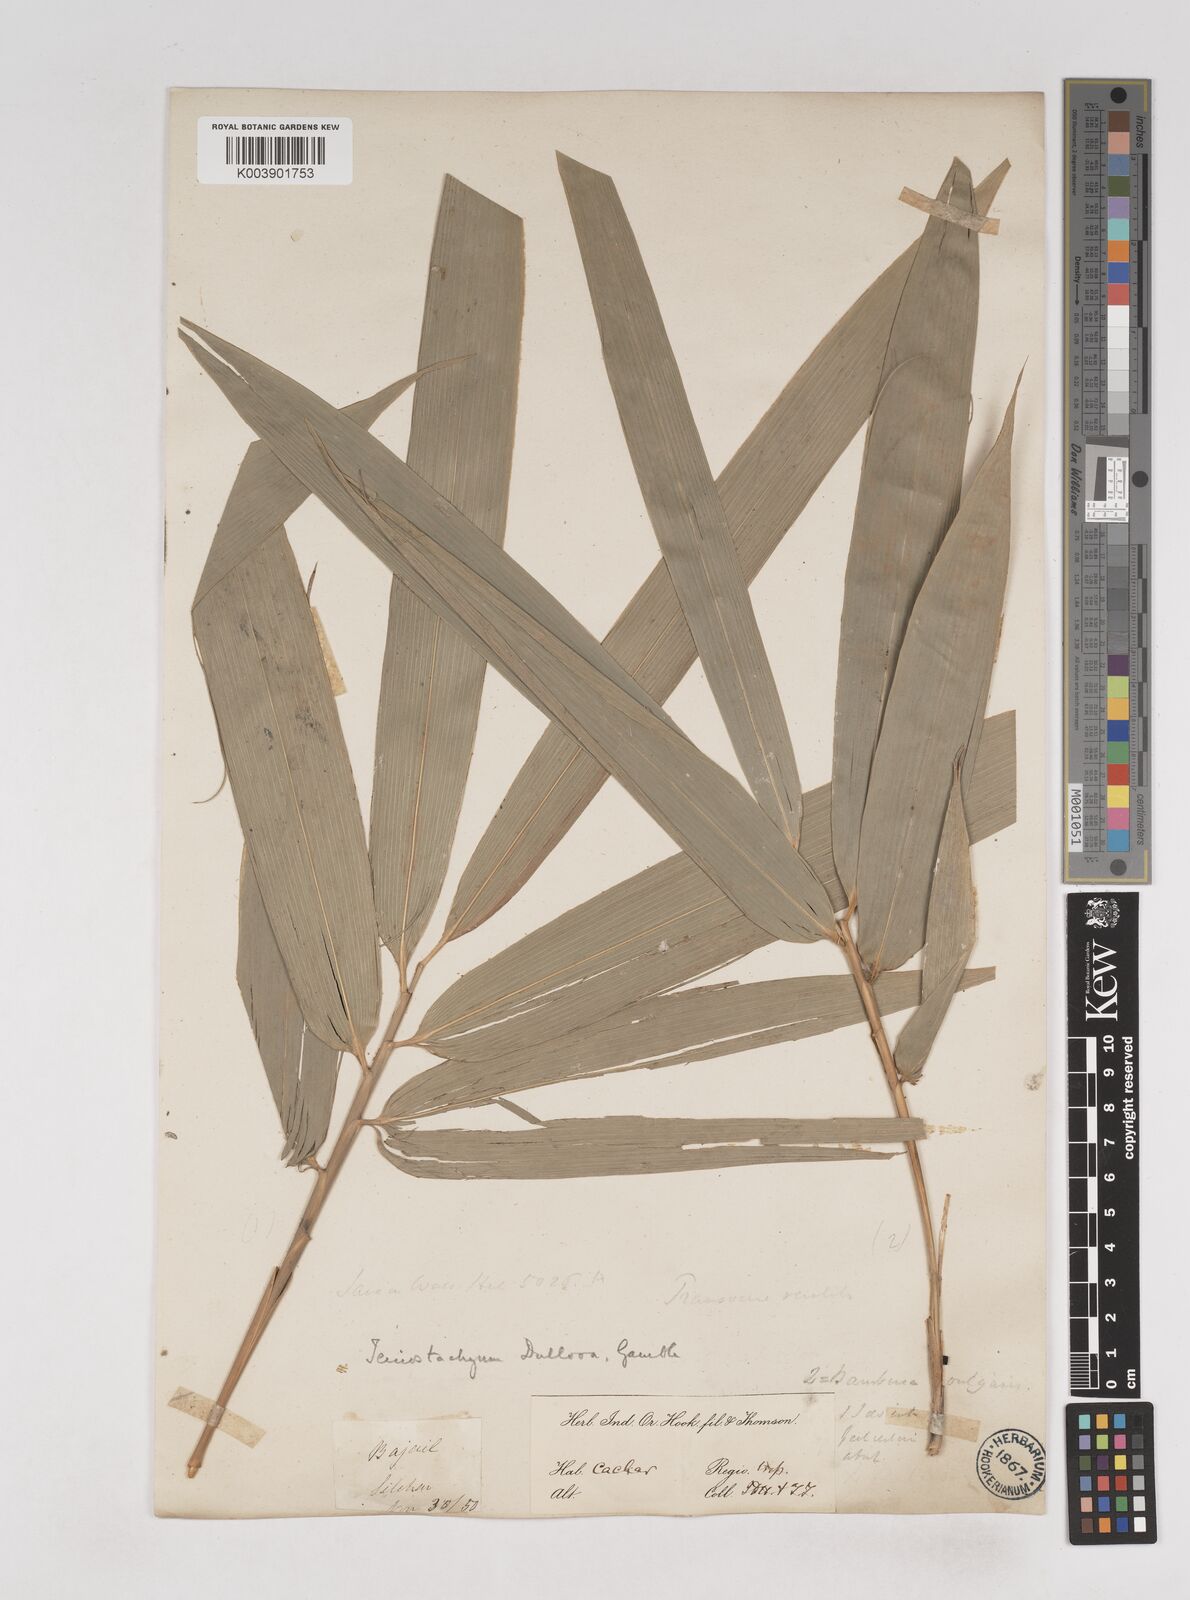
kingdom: Plantae
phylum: Tracheophyta
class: Liliopsida
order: Poales
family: Poaceae
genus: Schizostachyum
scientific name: Schizostachyum dullooa
